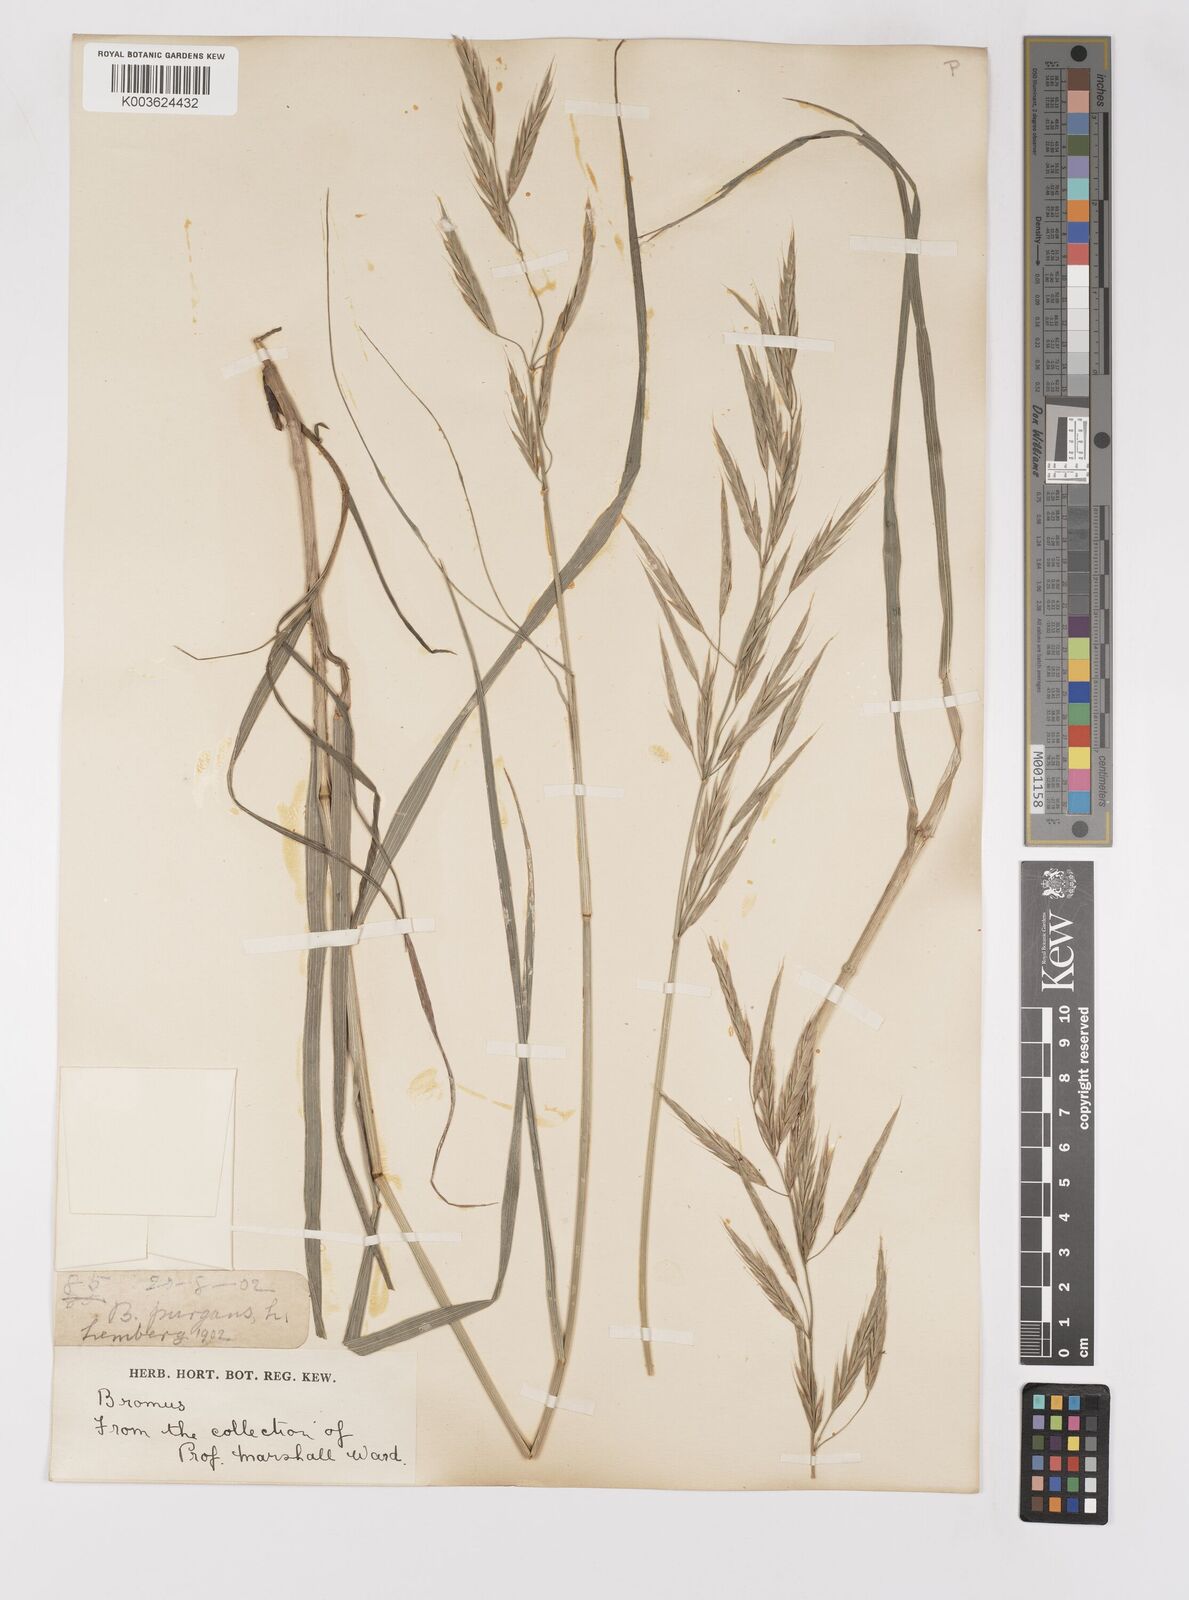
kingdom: Plantae
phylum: Tracheophyta
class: Liliopsida
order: Poales
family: Poaceae
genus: Bromus
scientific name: Bromus
